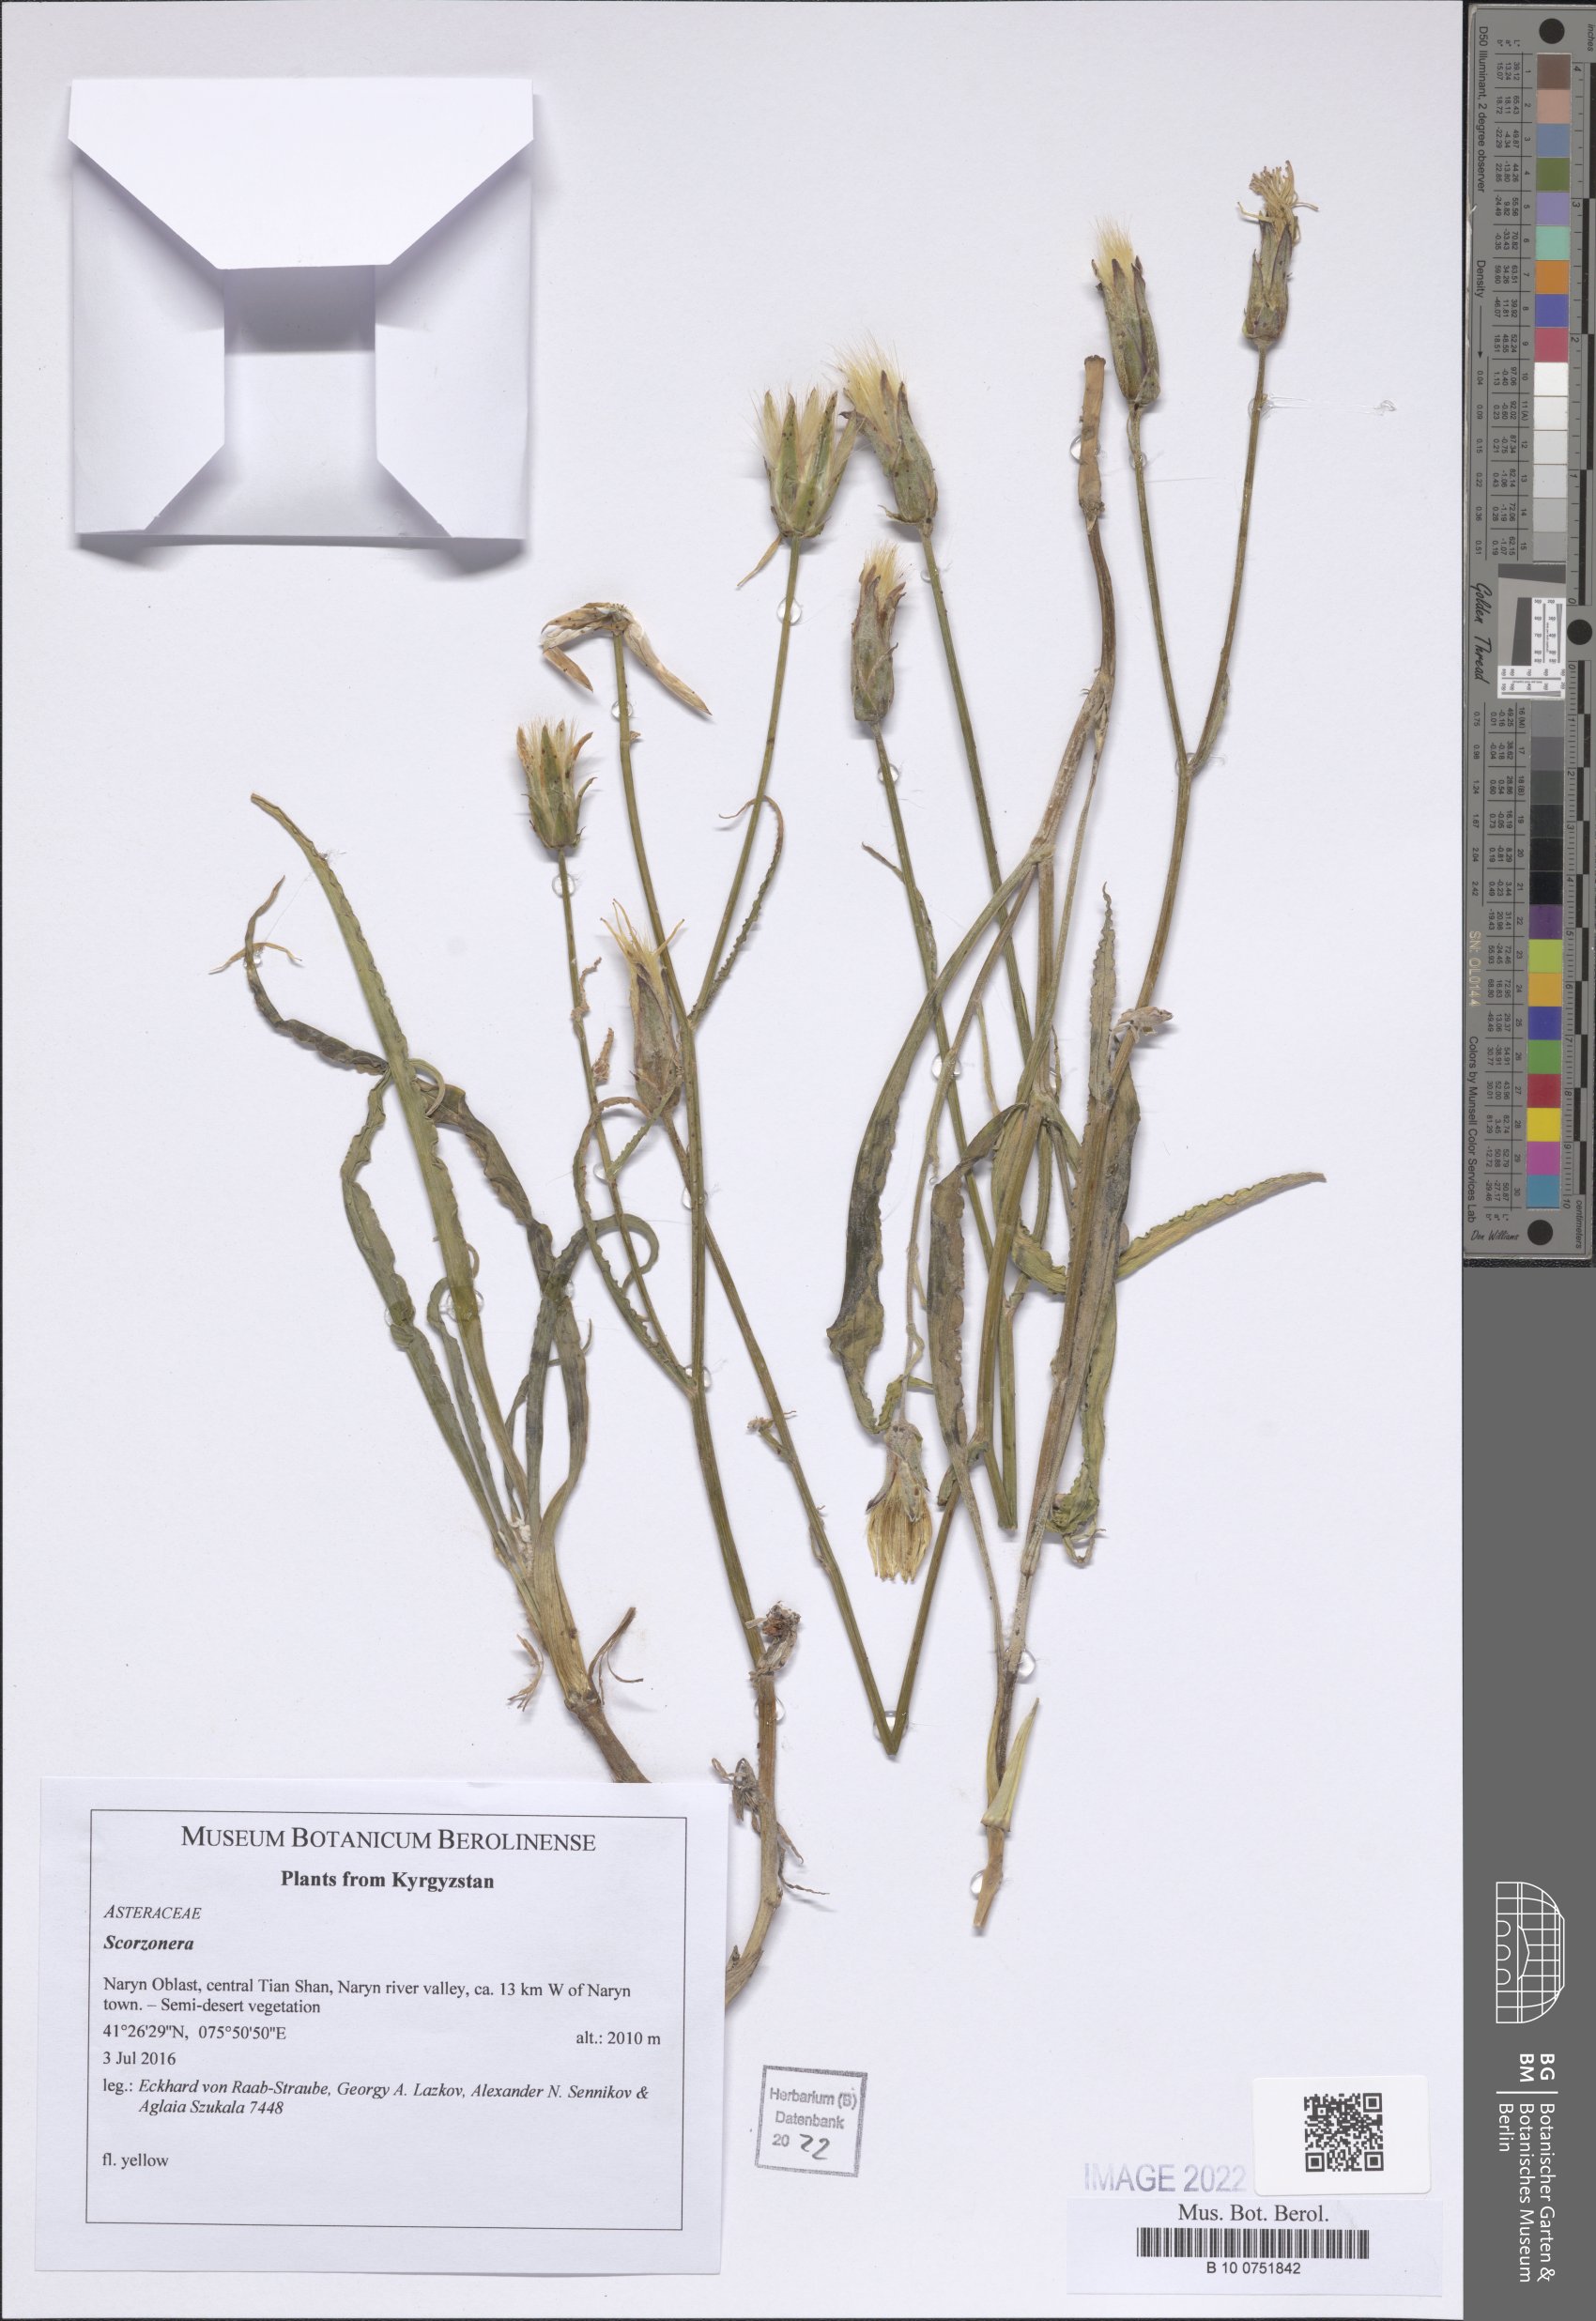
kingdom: Plantae
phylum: Tracheophyta
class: Magnoliopsida
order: Asterales
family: Asteraceae
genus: Scorzonera
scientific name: Scorzonera
